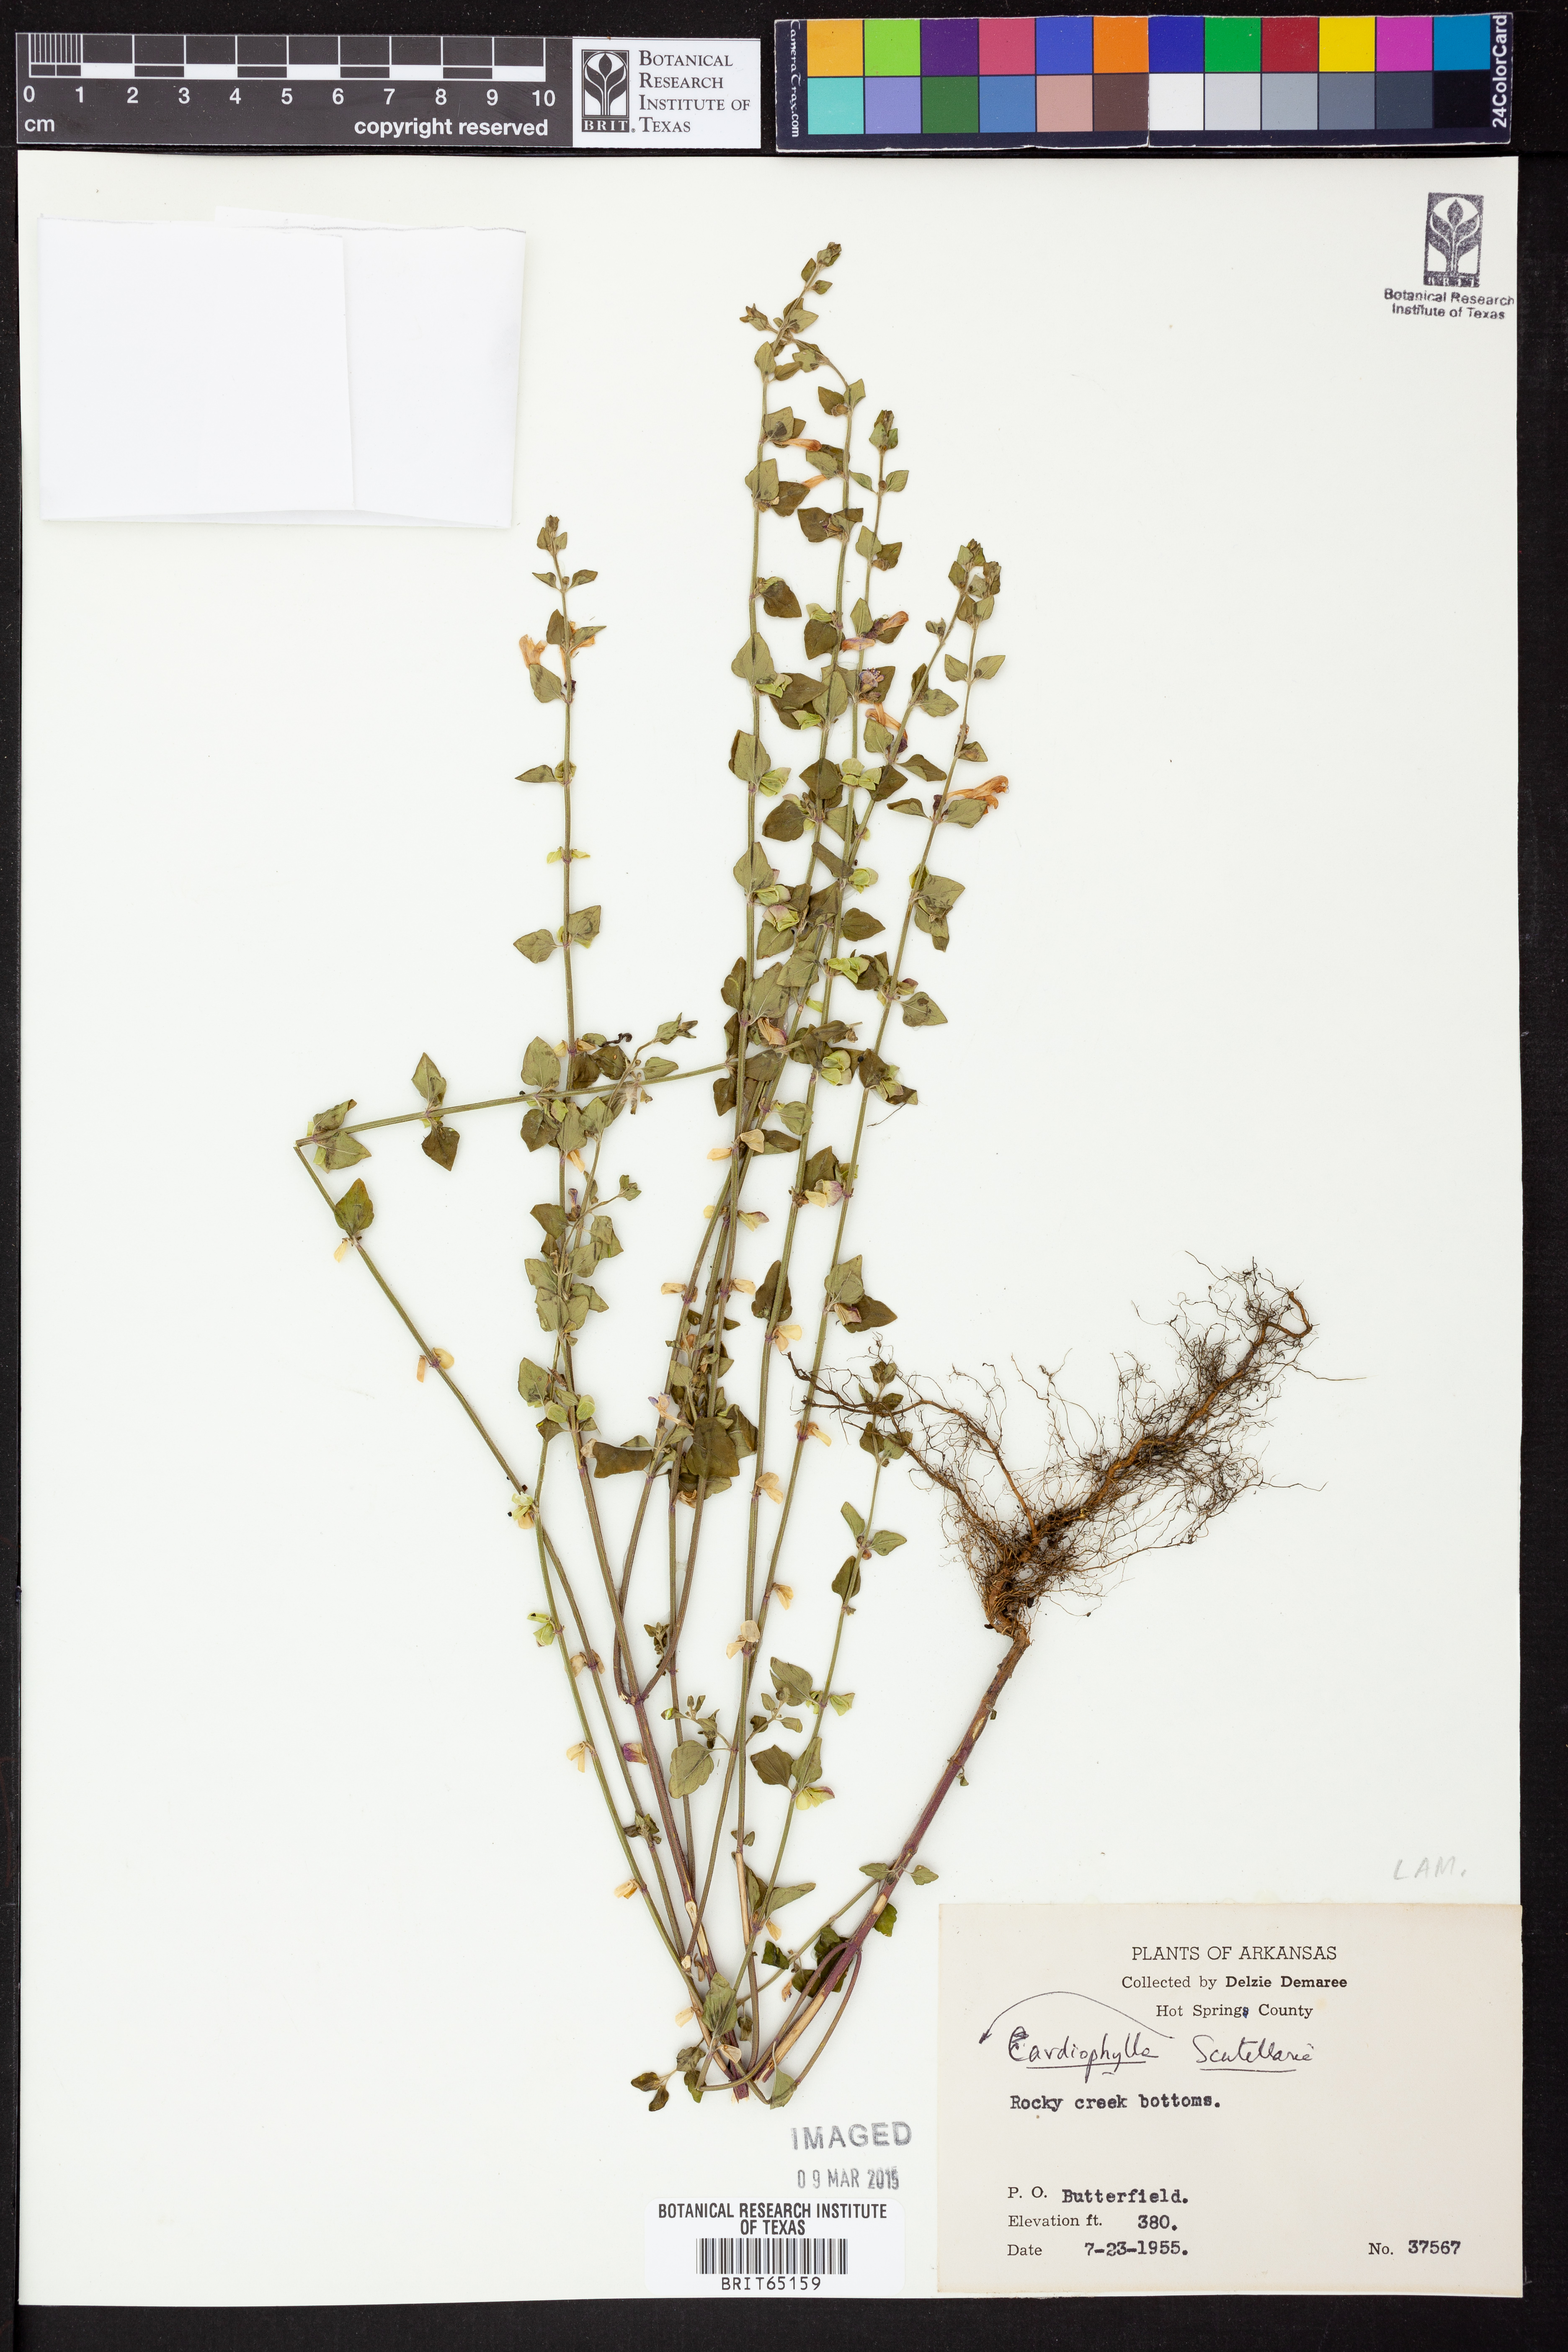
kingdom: Plantae
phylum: Tracheophyta
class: Magnoliopsida
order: Lamiales
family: Lamiaceae
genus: Scutellaria
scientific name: Scutellaria
